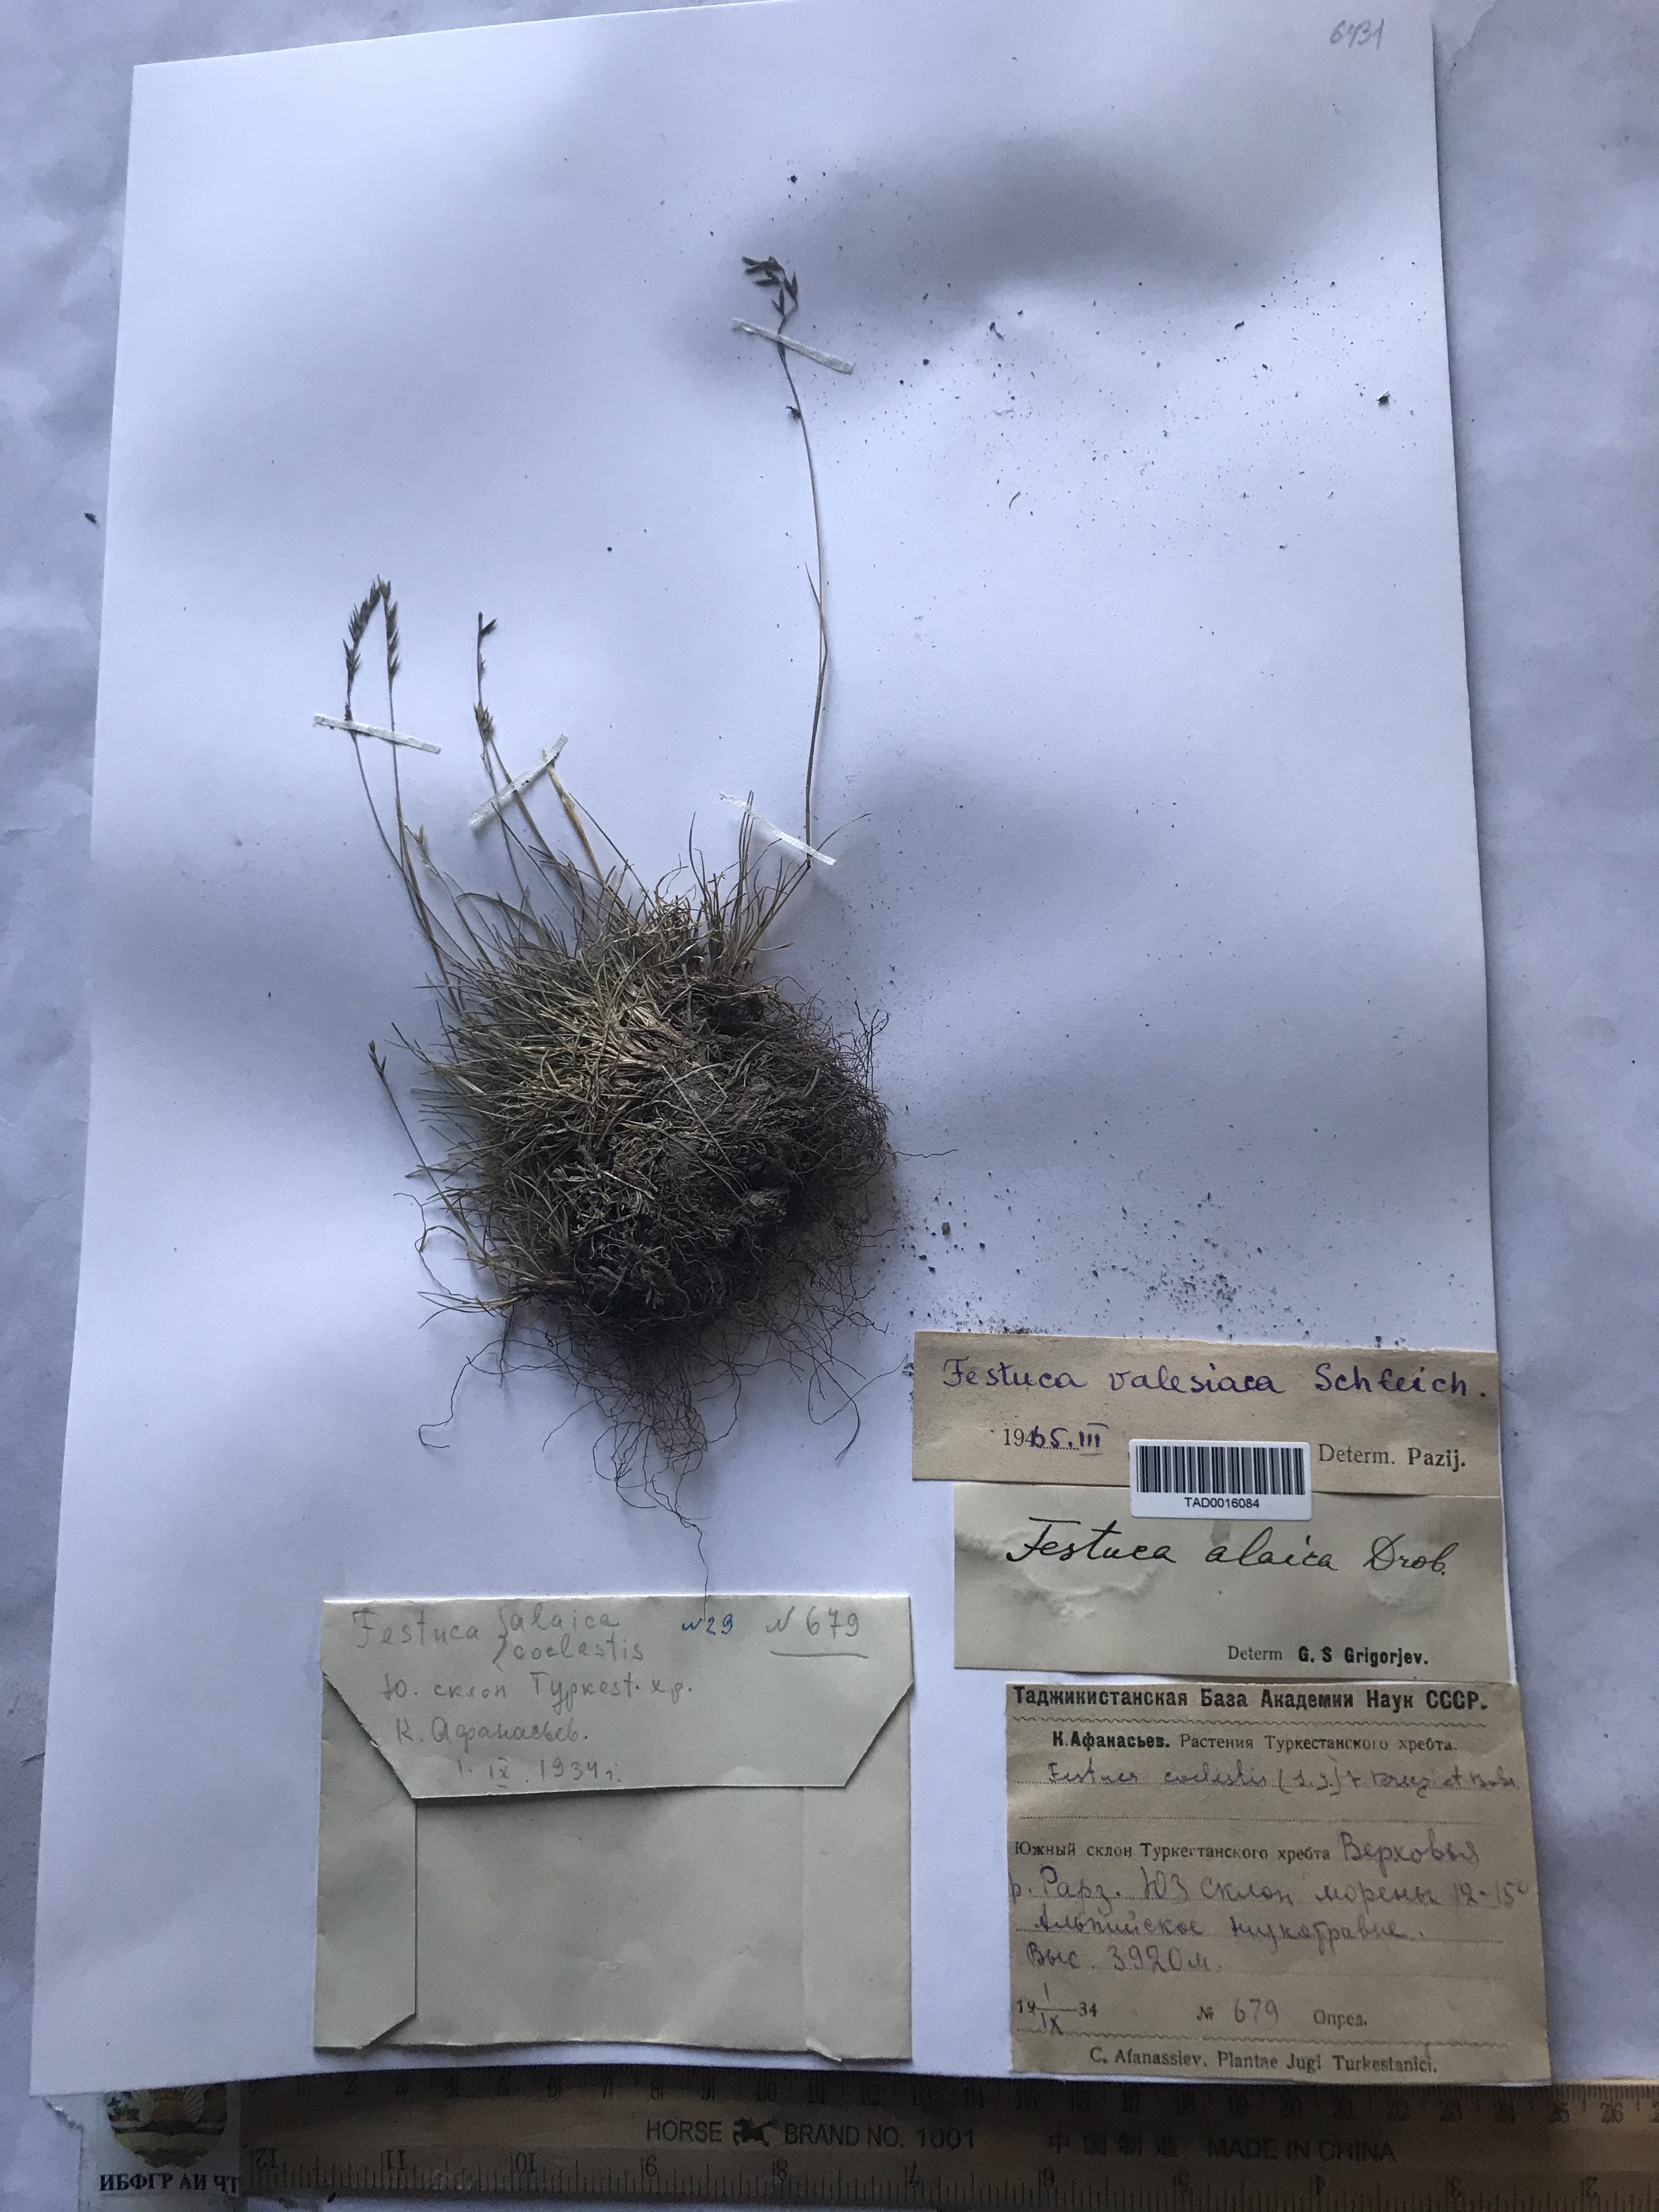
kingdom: Plantae
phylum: Tracheophyta
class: Liliopsida
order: Poales
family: Poaceae
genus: Festuca
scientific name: Festuca valesiaca
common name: Volga fescue
